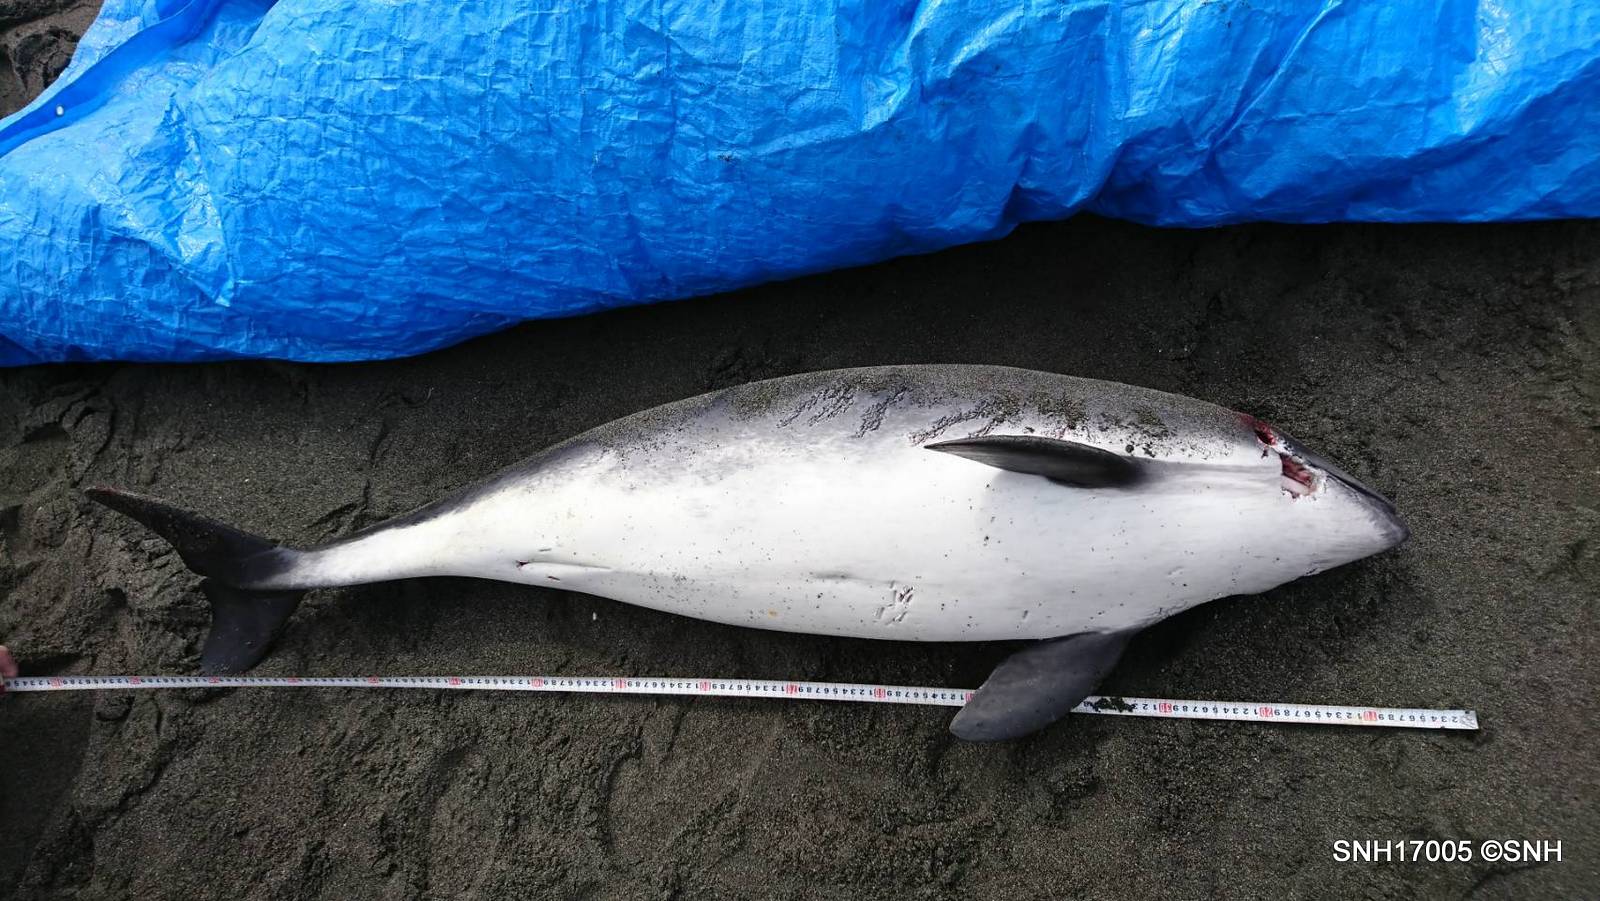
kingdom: Animalia
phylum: Chordata
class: Mammalia
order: Cetacea
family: Phocoenidae
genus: Phocoena
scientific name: Phocoena phocoena
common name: Harbour porpoise
